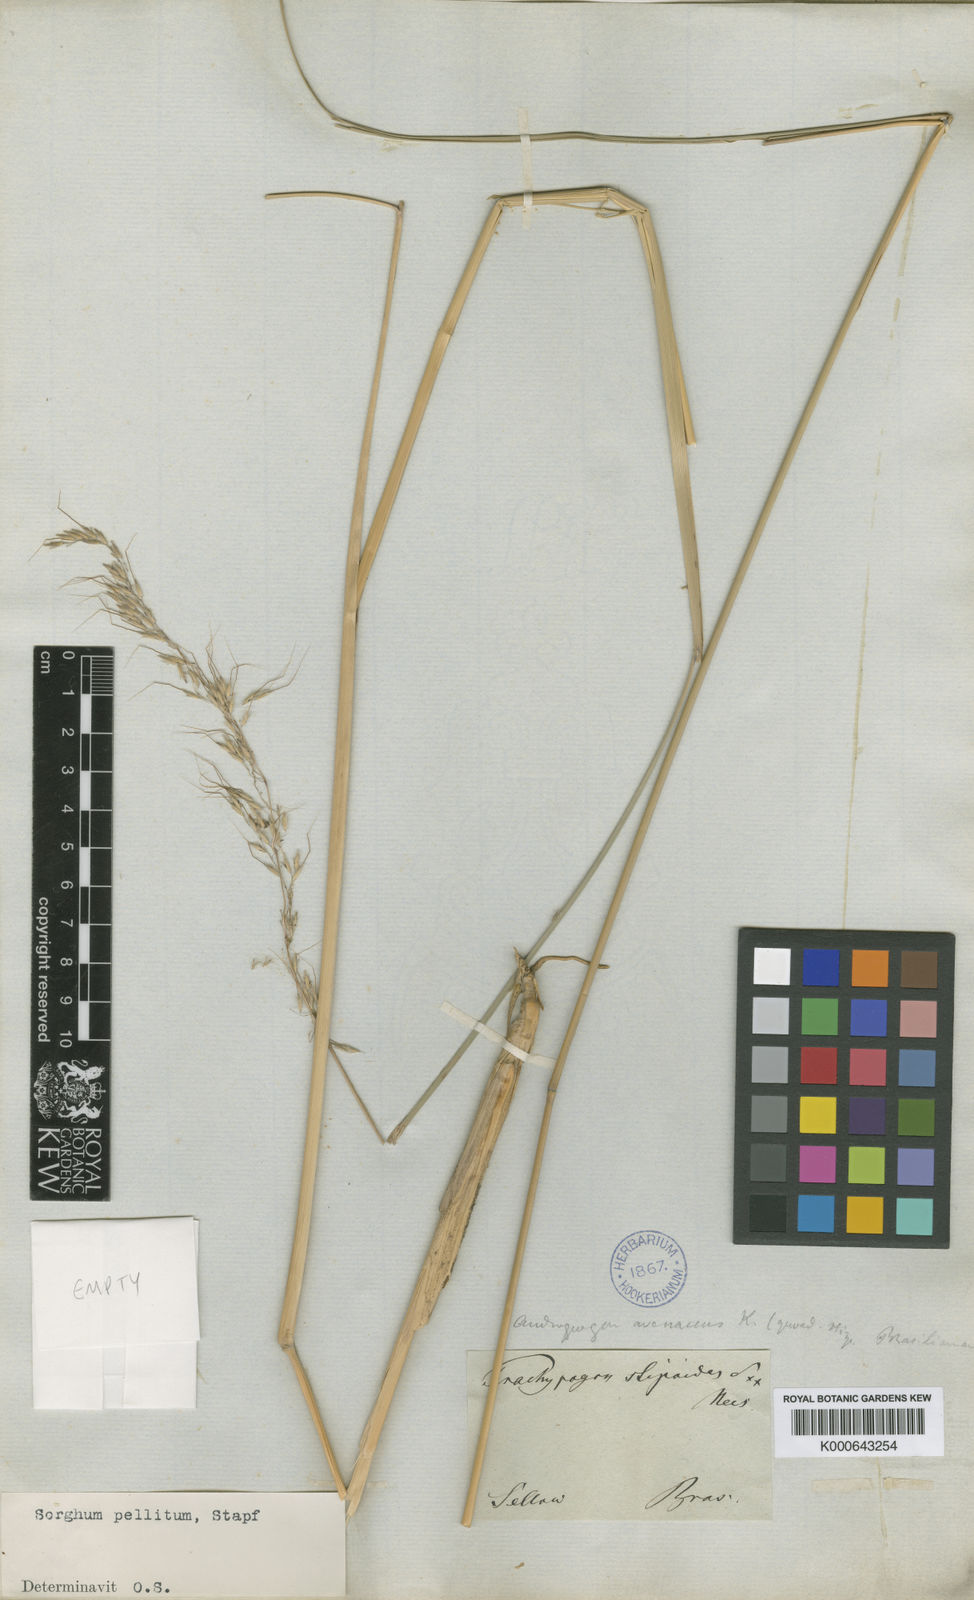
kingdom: Plantae
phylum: Tracheophyta
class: Liliopsida
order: Poales
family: Poaceae
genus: Axonopus
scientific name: Axonopus siccus
